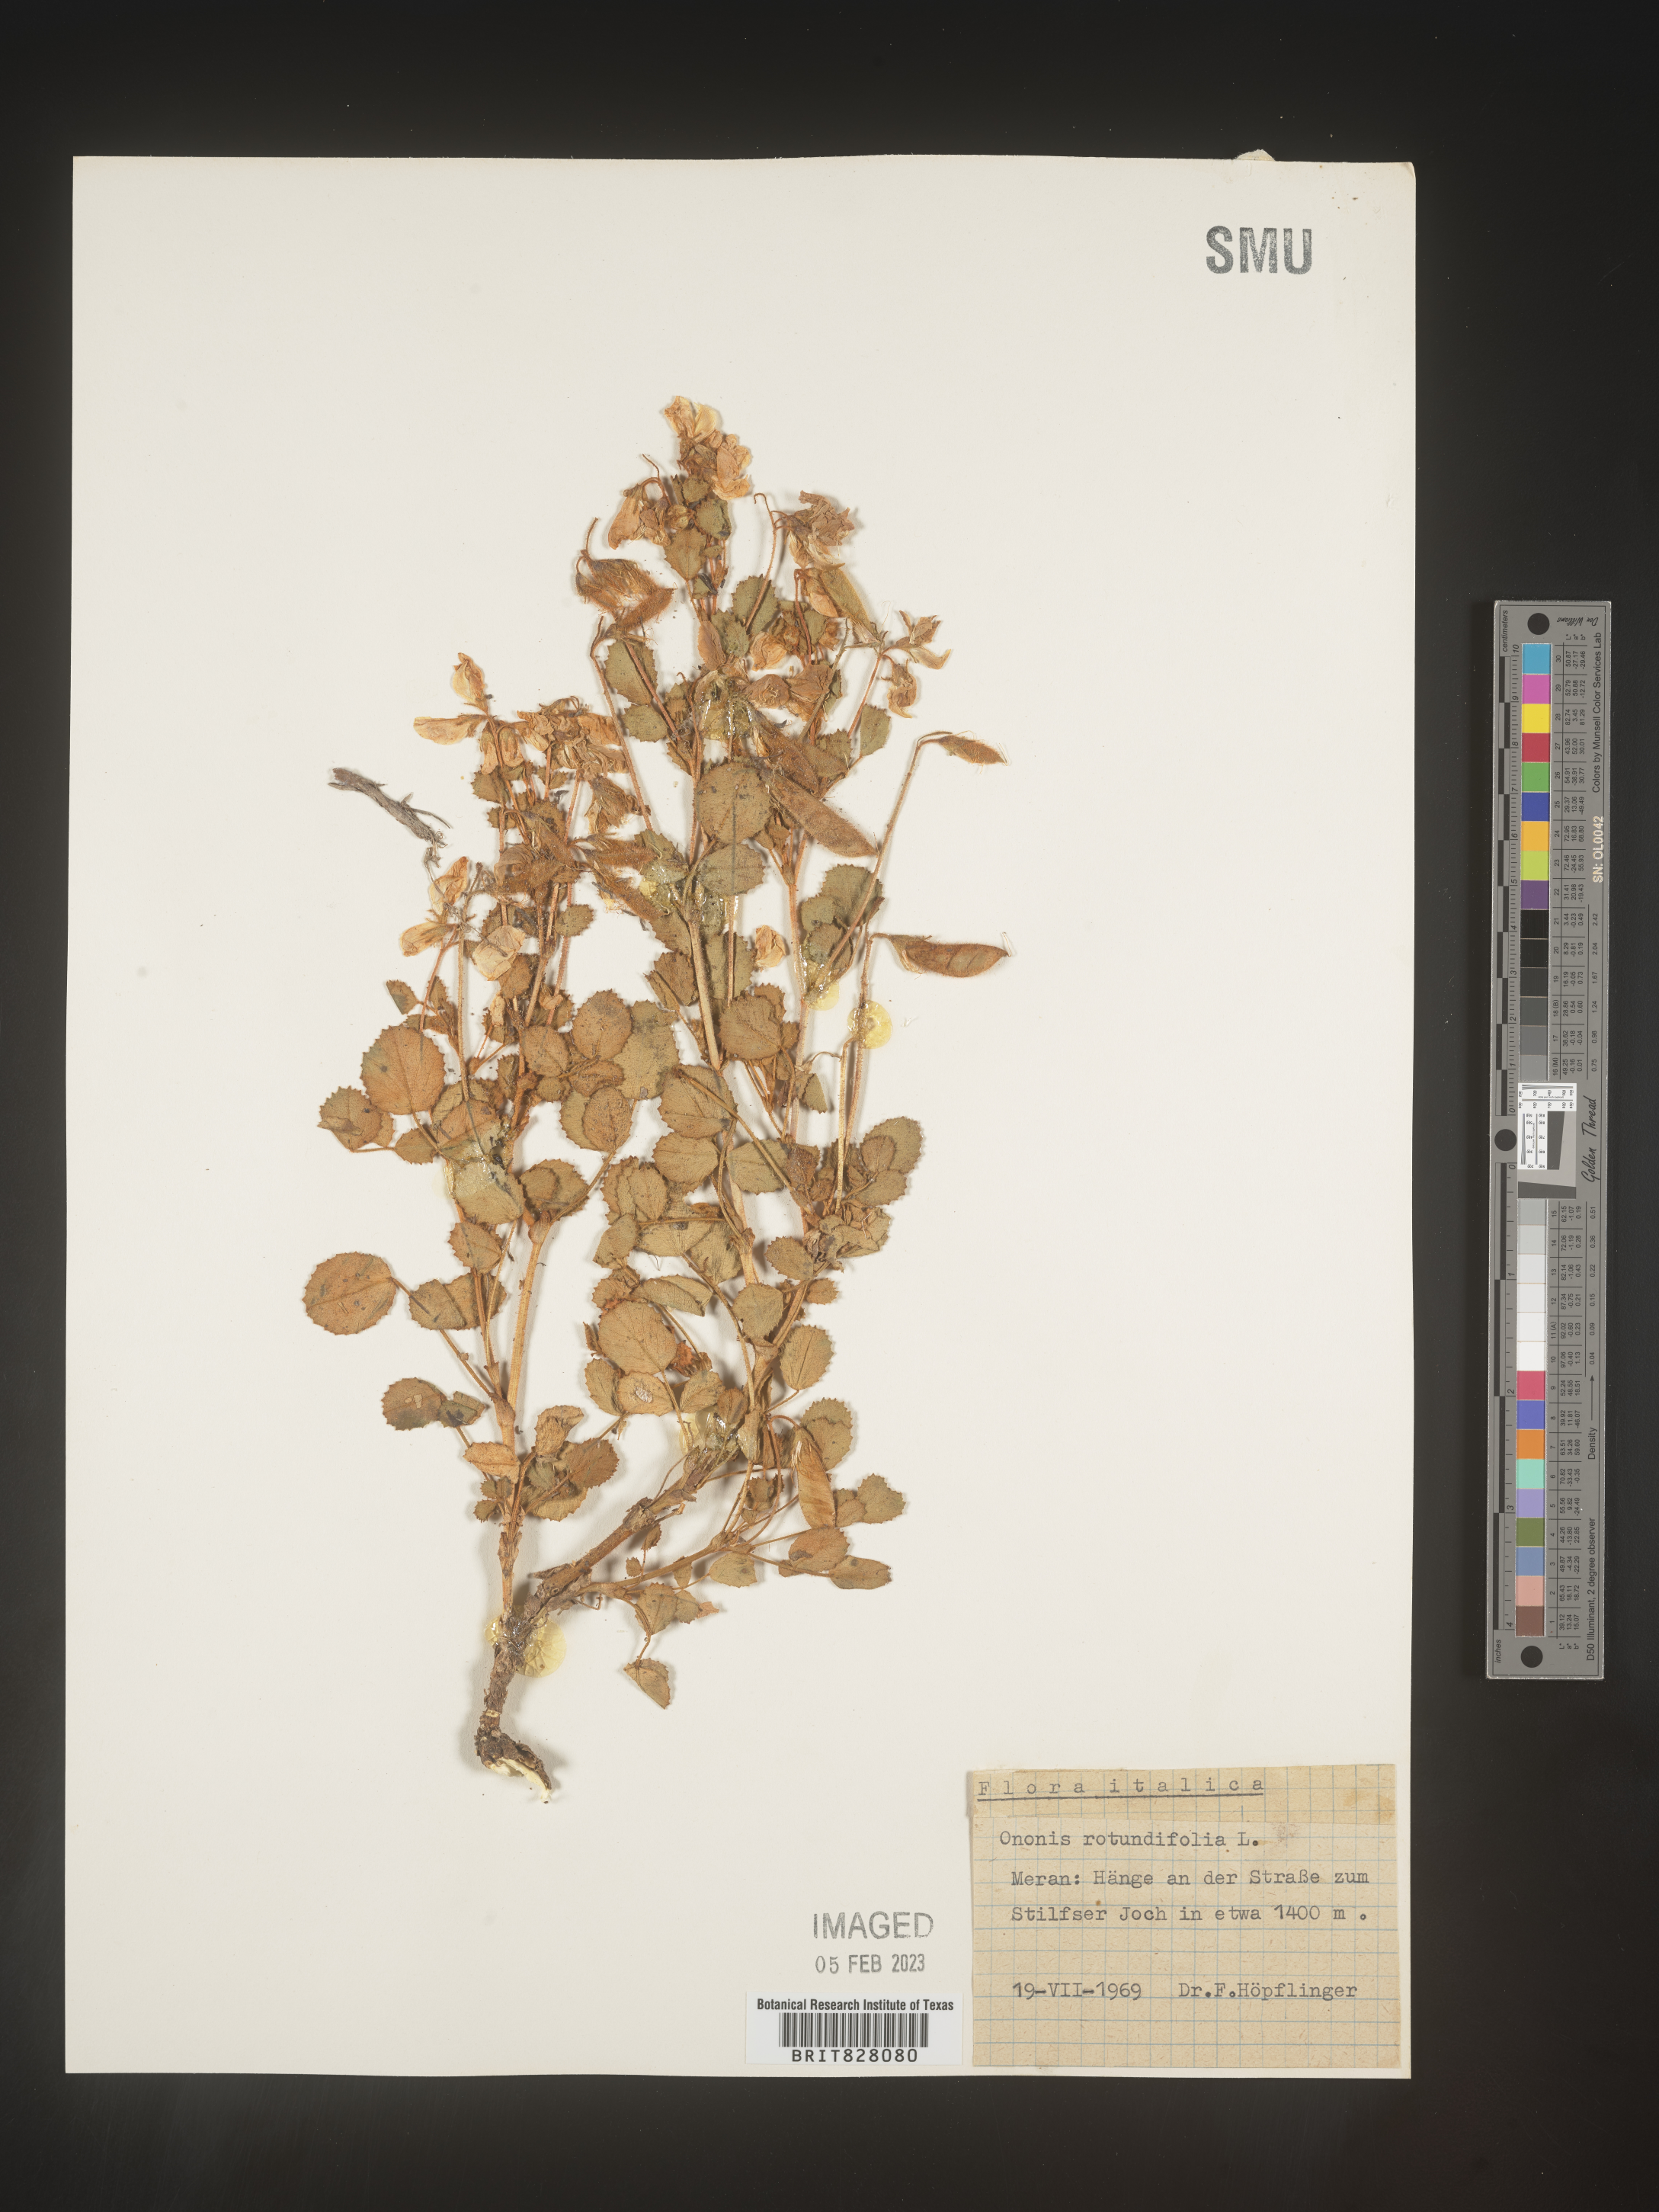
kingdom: Plantae
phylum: Tracheophyta
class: Magnoliopsida
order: Fabales
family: Fabaceae
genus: Ononis
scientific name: Ononis
